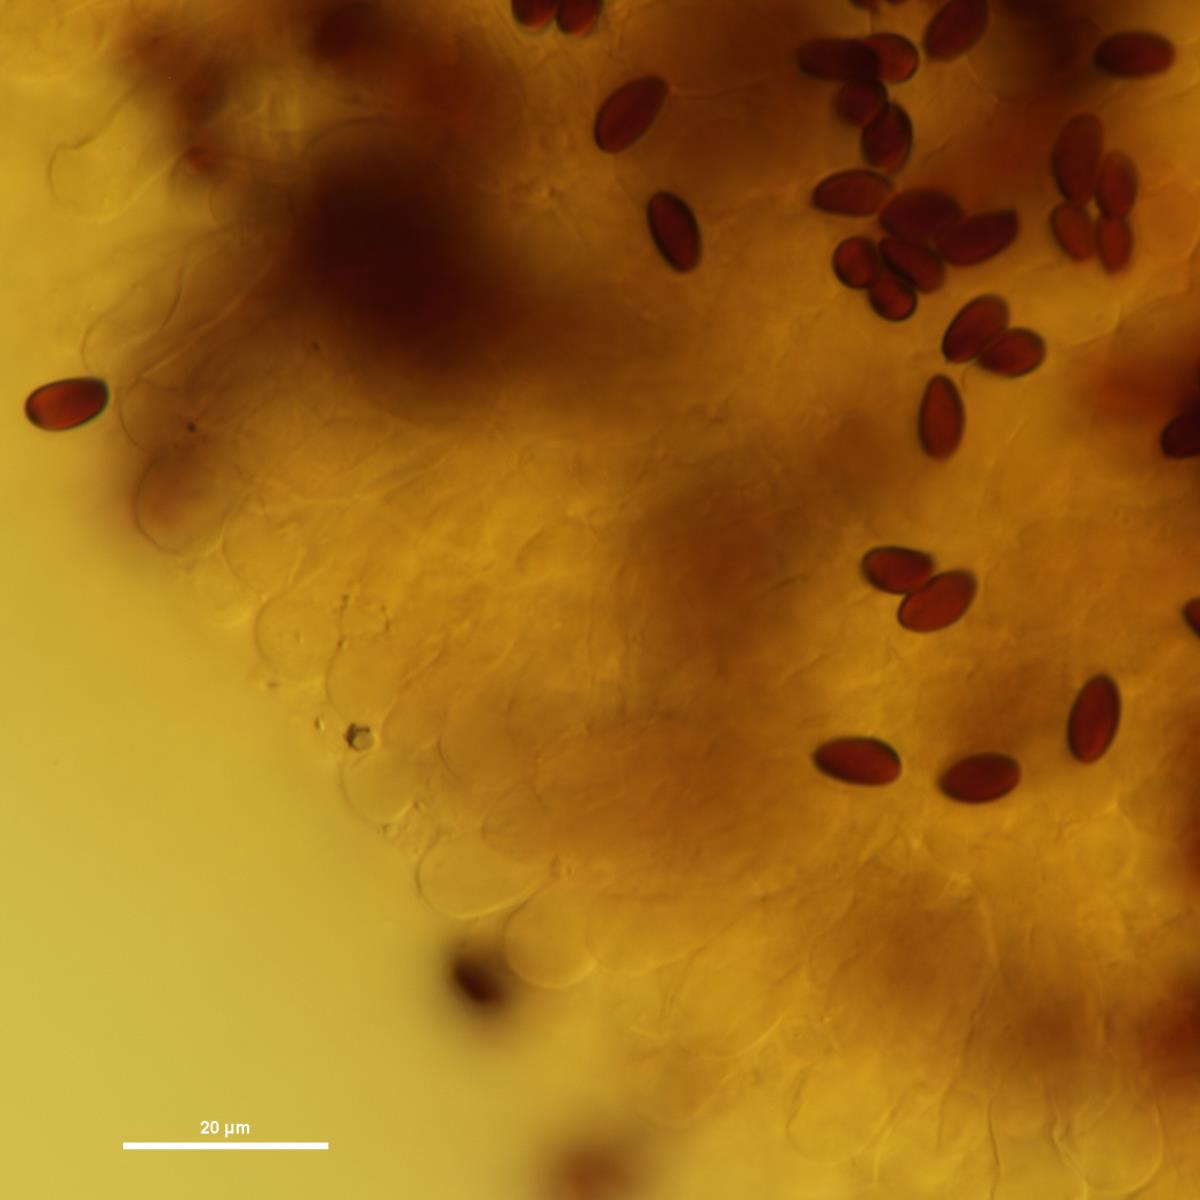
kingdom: Fungi
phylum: Basidiomycota
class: Agaricomycetes
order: Agaricales
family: Agaricaceae
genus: Lepiota
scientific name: Lepiota
